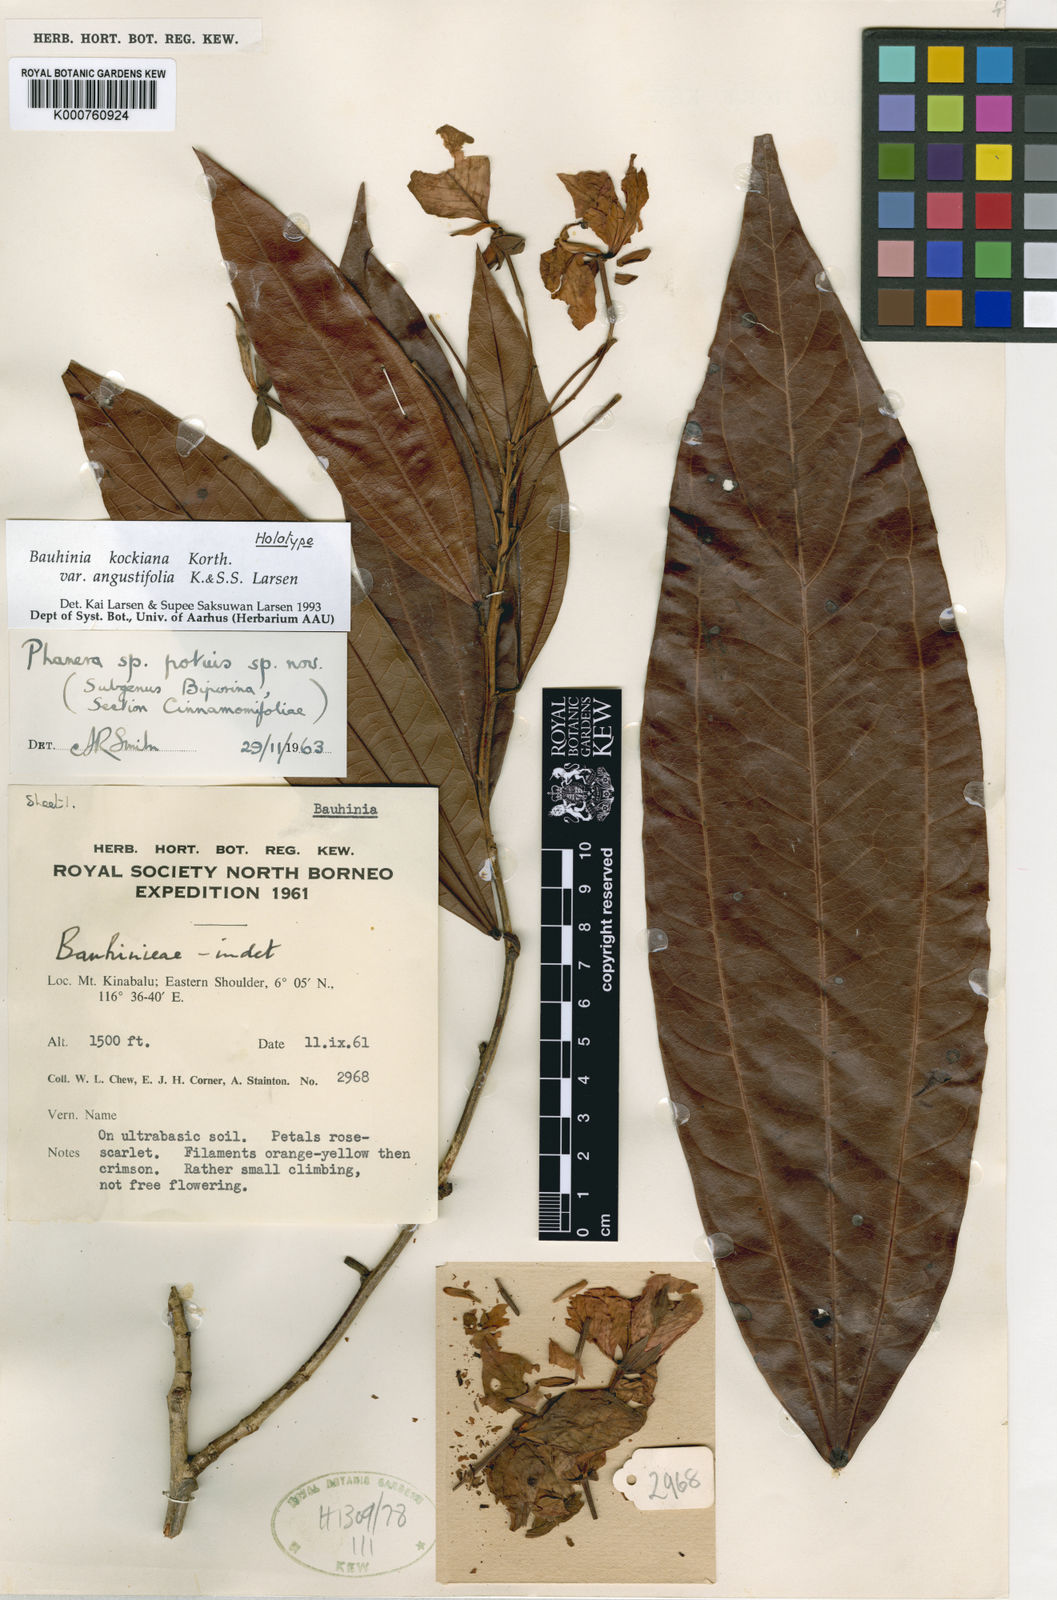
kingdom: Plantae
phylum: Tracheophyta
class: Magnoliopsida
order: Fabales
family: Fabaceae
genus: Phanera
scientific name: Phanera kockiana
